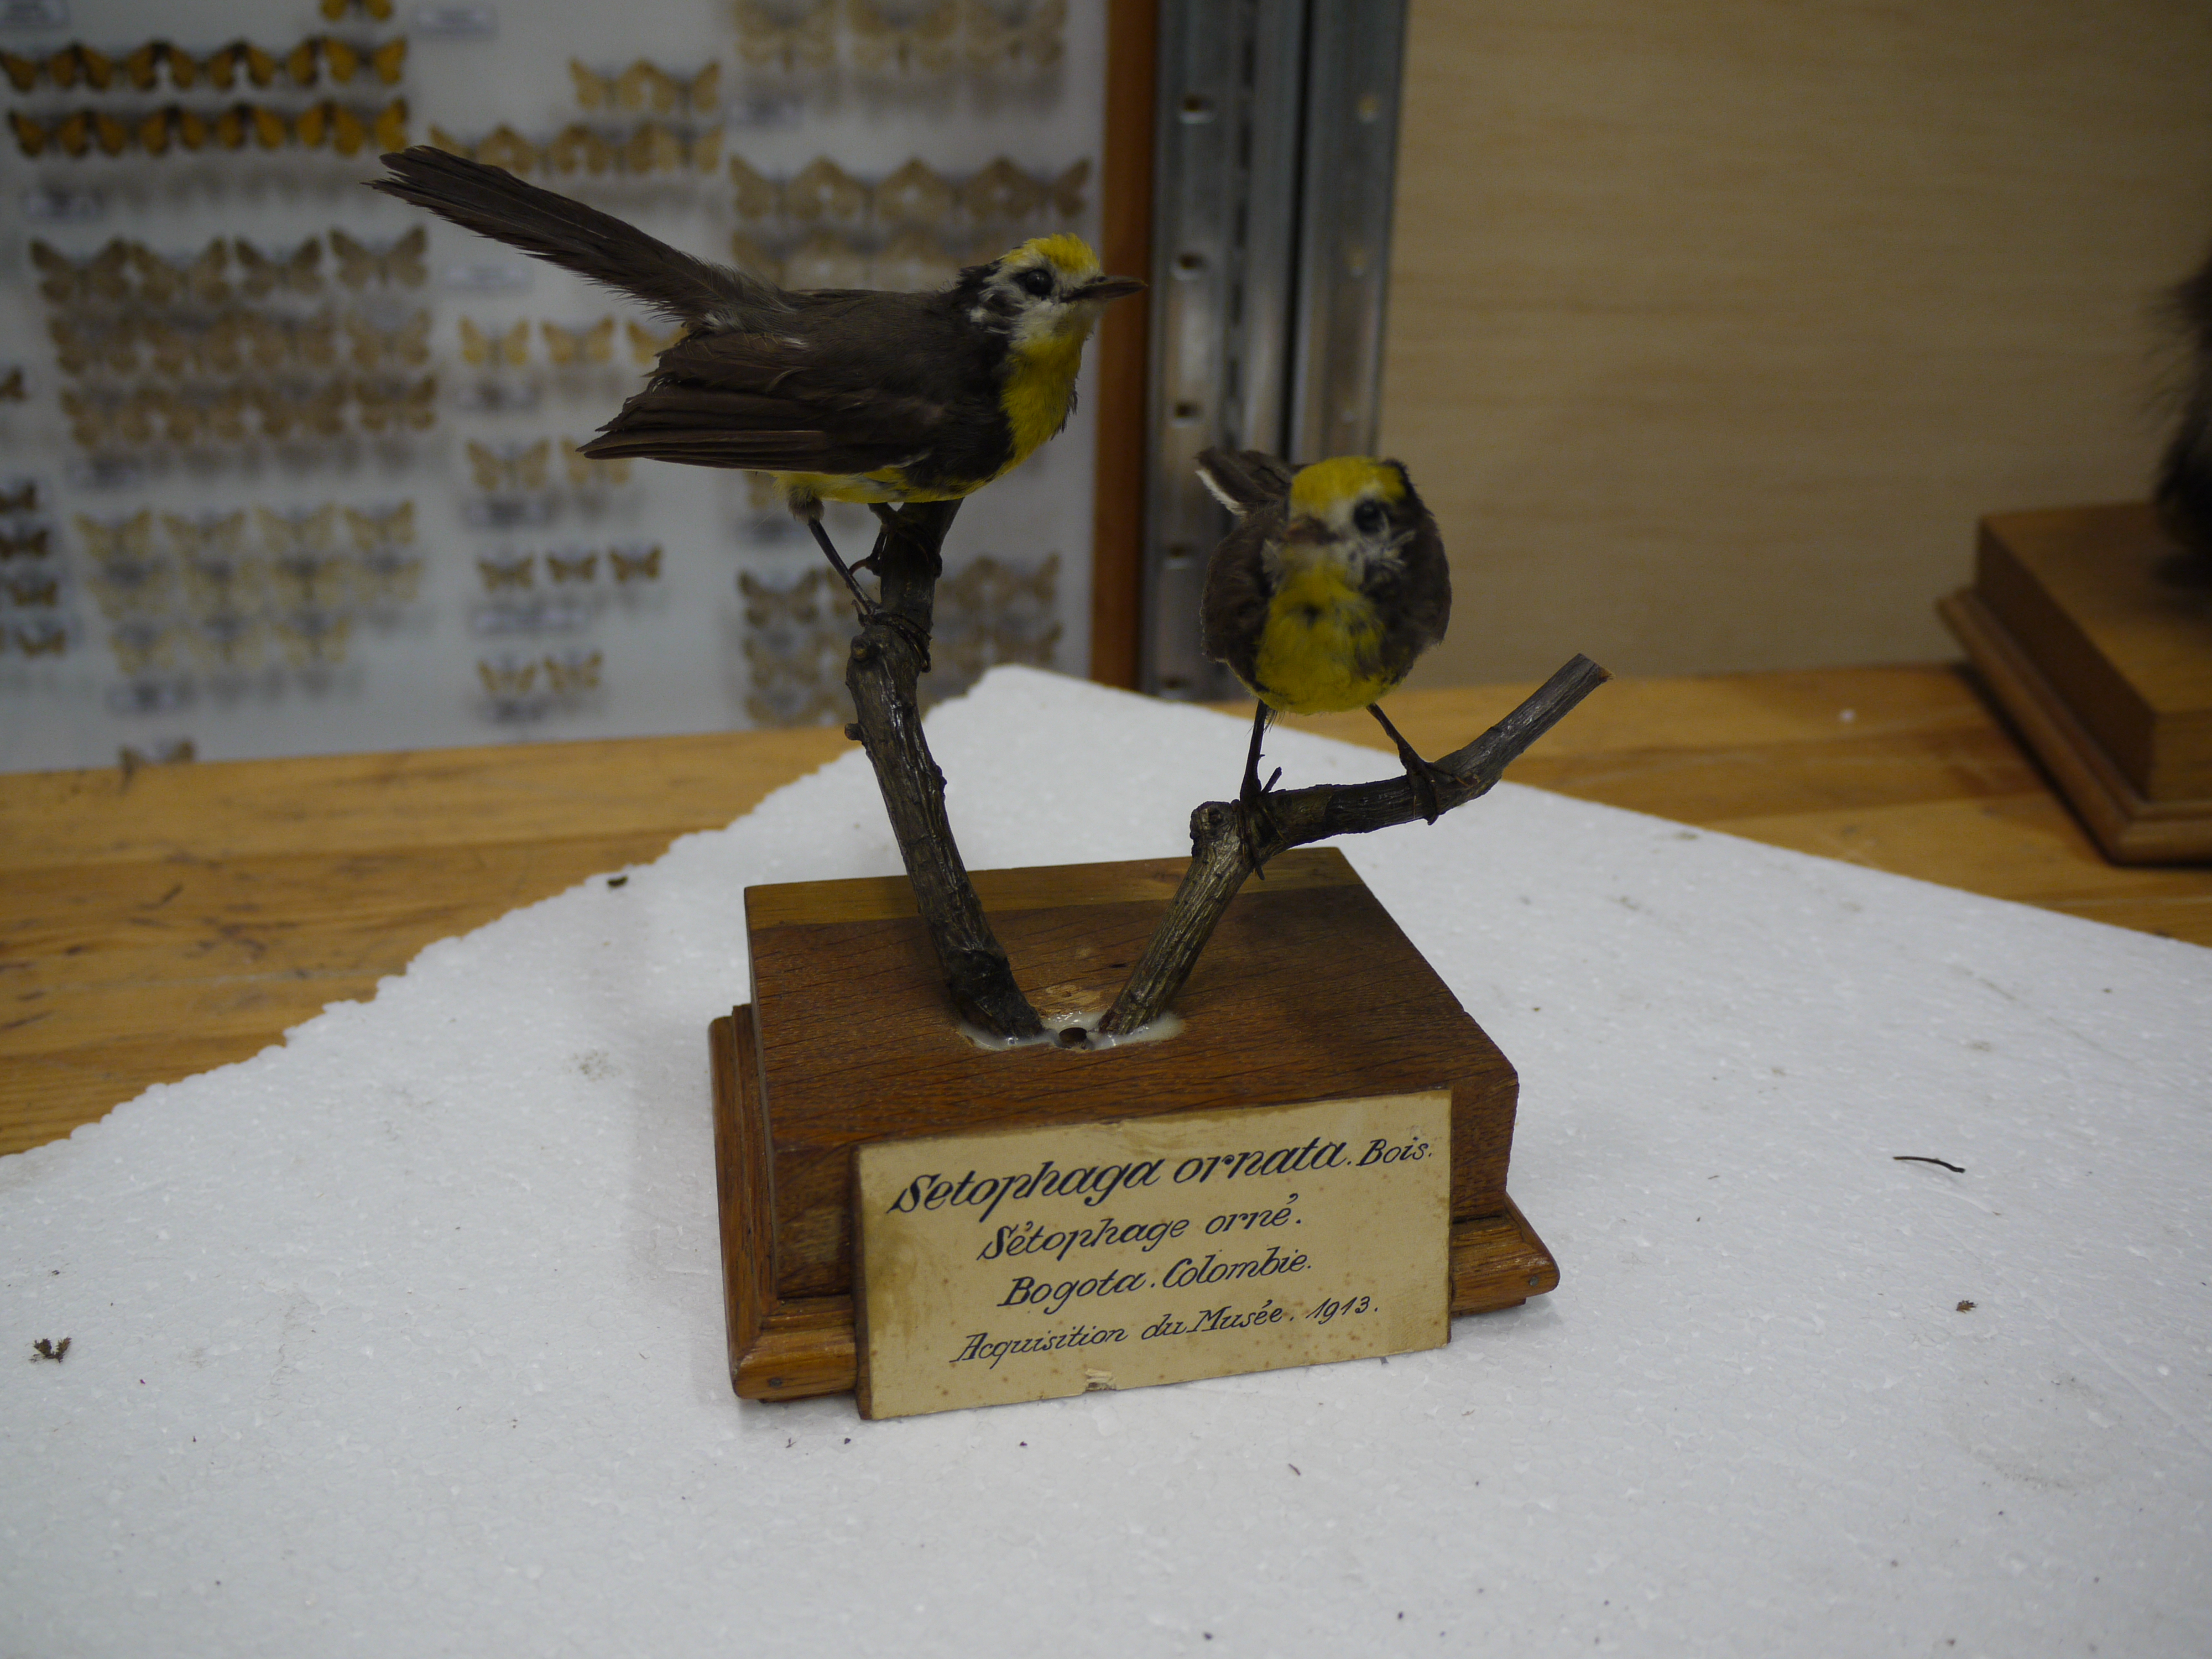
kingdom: Animalia
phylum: Chordata
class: Aves
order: Passeriformes
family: Parulidae
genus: Myioborus
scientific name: Myioborus ornatus
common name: Golden-fronted whitestart
